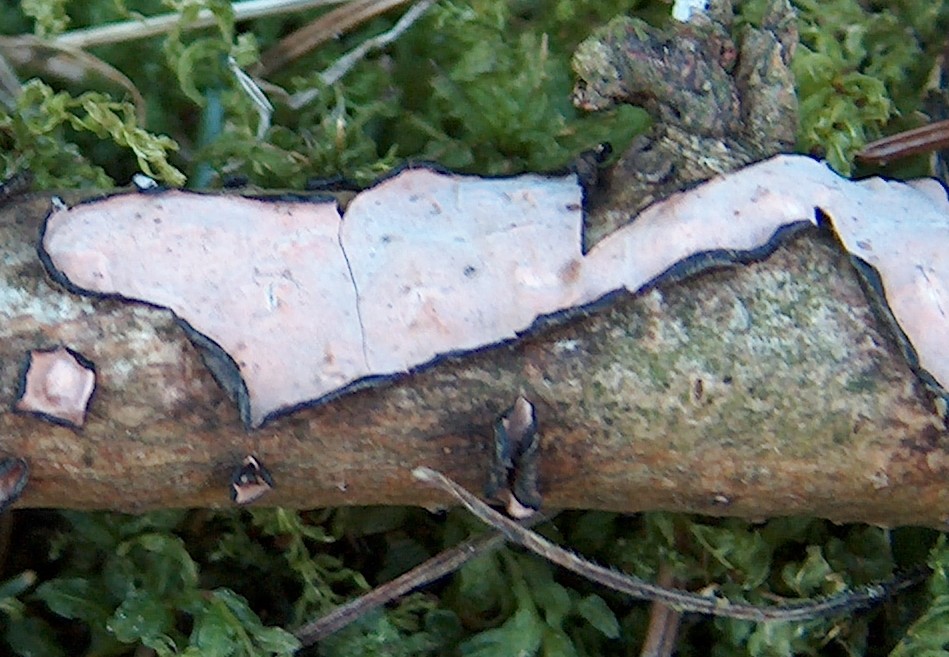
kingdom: Fungi
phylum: Basidiomycota
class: Agaricomycetes
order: Russulales
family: Peniophoraceae
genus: Peniophora
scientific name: Peniophora quercina
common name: ege-voksskind
